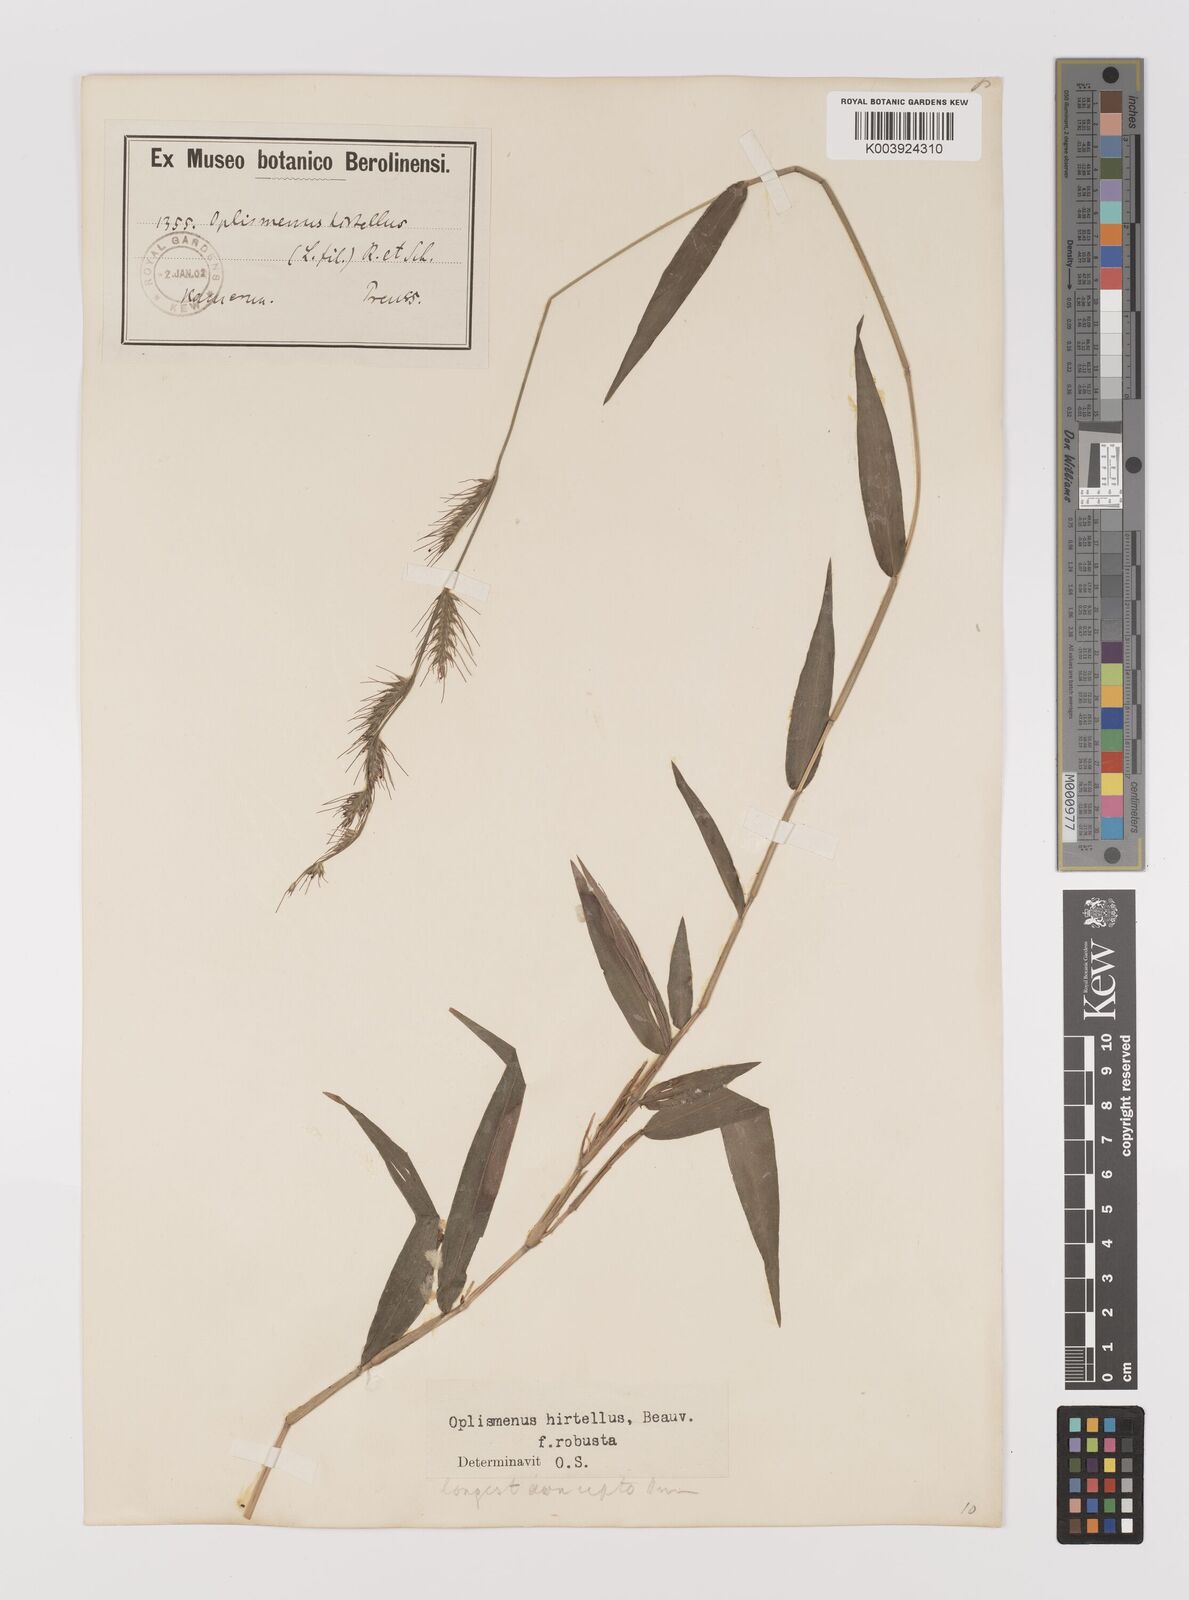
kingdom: Plantae
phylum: Tracheophyta
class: Liliopsida
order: Poales
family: Poaceae
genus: Oplismenus
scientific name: Oplismenus hirtellus
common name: Basketgrass
